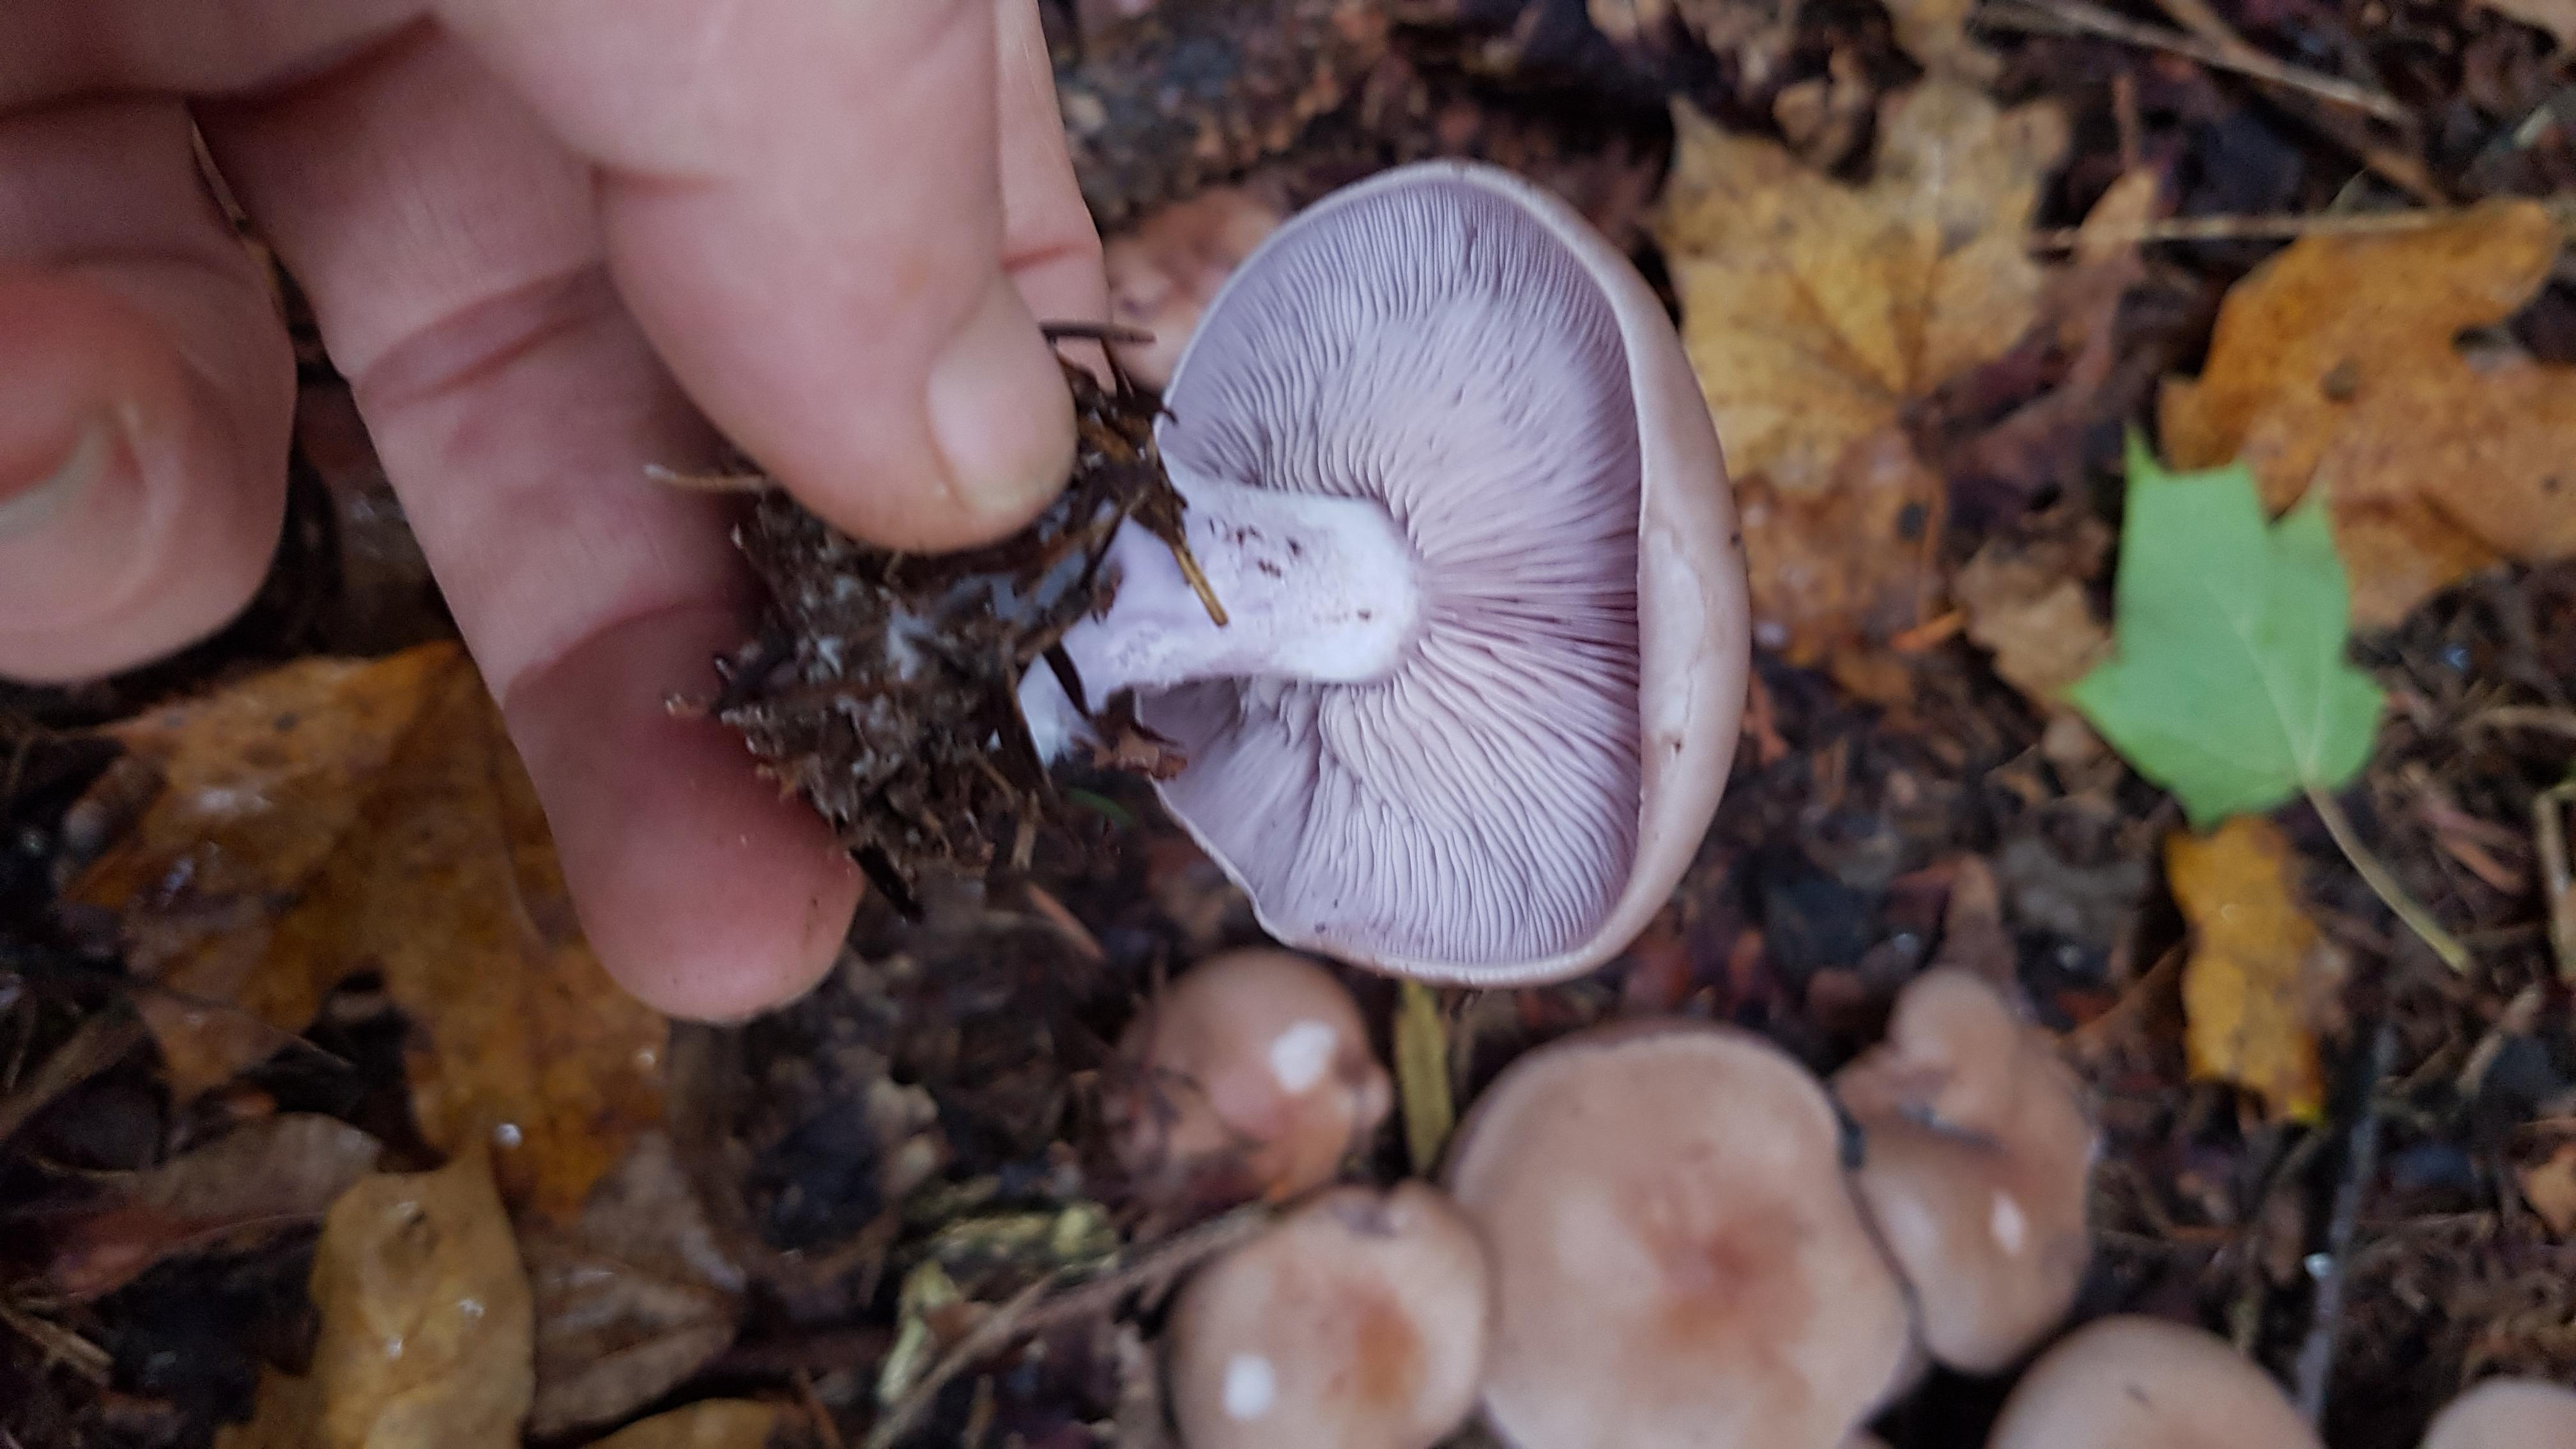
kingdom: Fungi
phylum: Basidiomycota
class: Agaricomycetes
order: Agaricales
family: Tricholomataceae
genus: Lepista
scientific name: Lepista nuda
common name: violet hekseringshat
